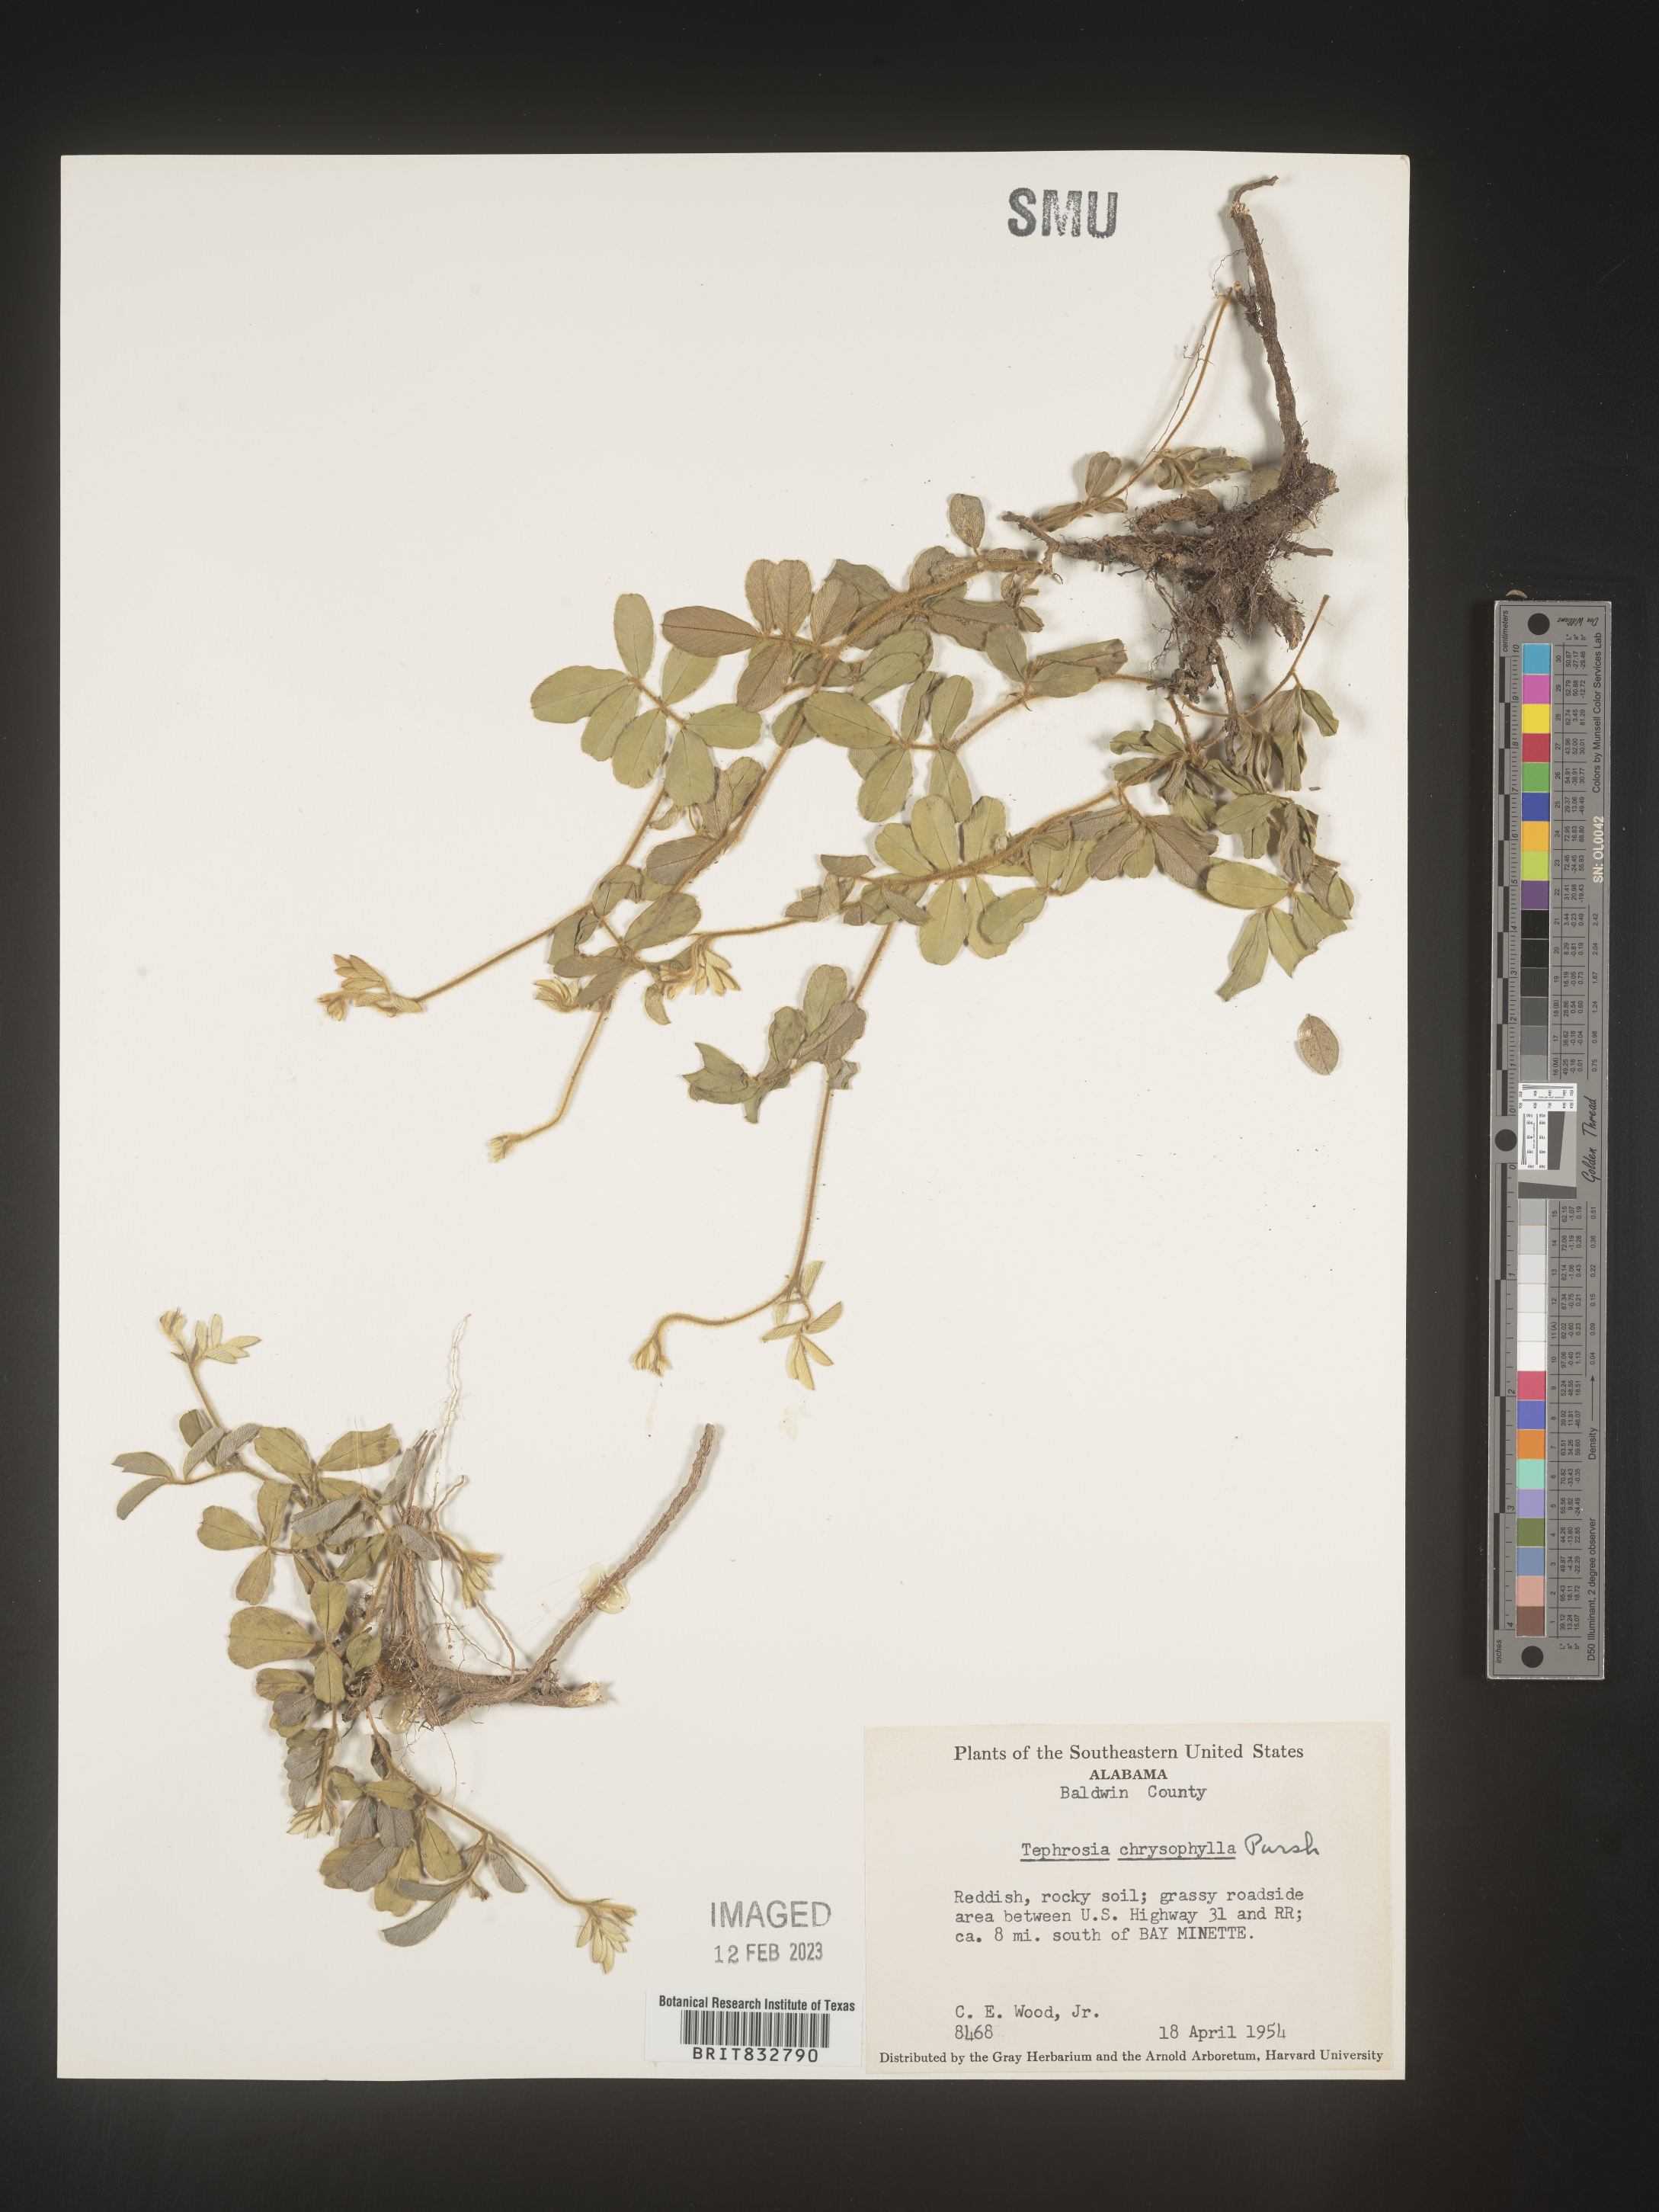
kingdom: Plantae
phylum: Tracheophyta
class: Magnoliopsida
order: Fabales
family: Fabaceae
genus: Tephrosia
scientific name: Tephrosia chrysophylla
